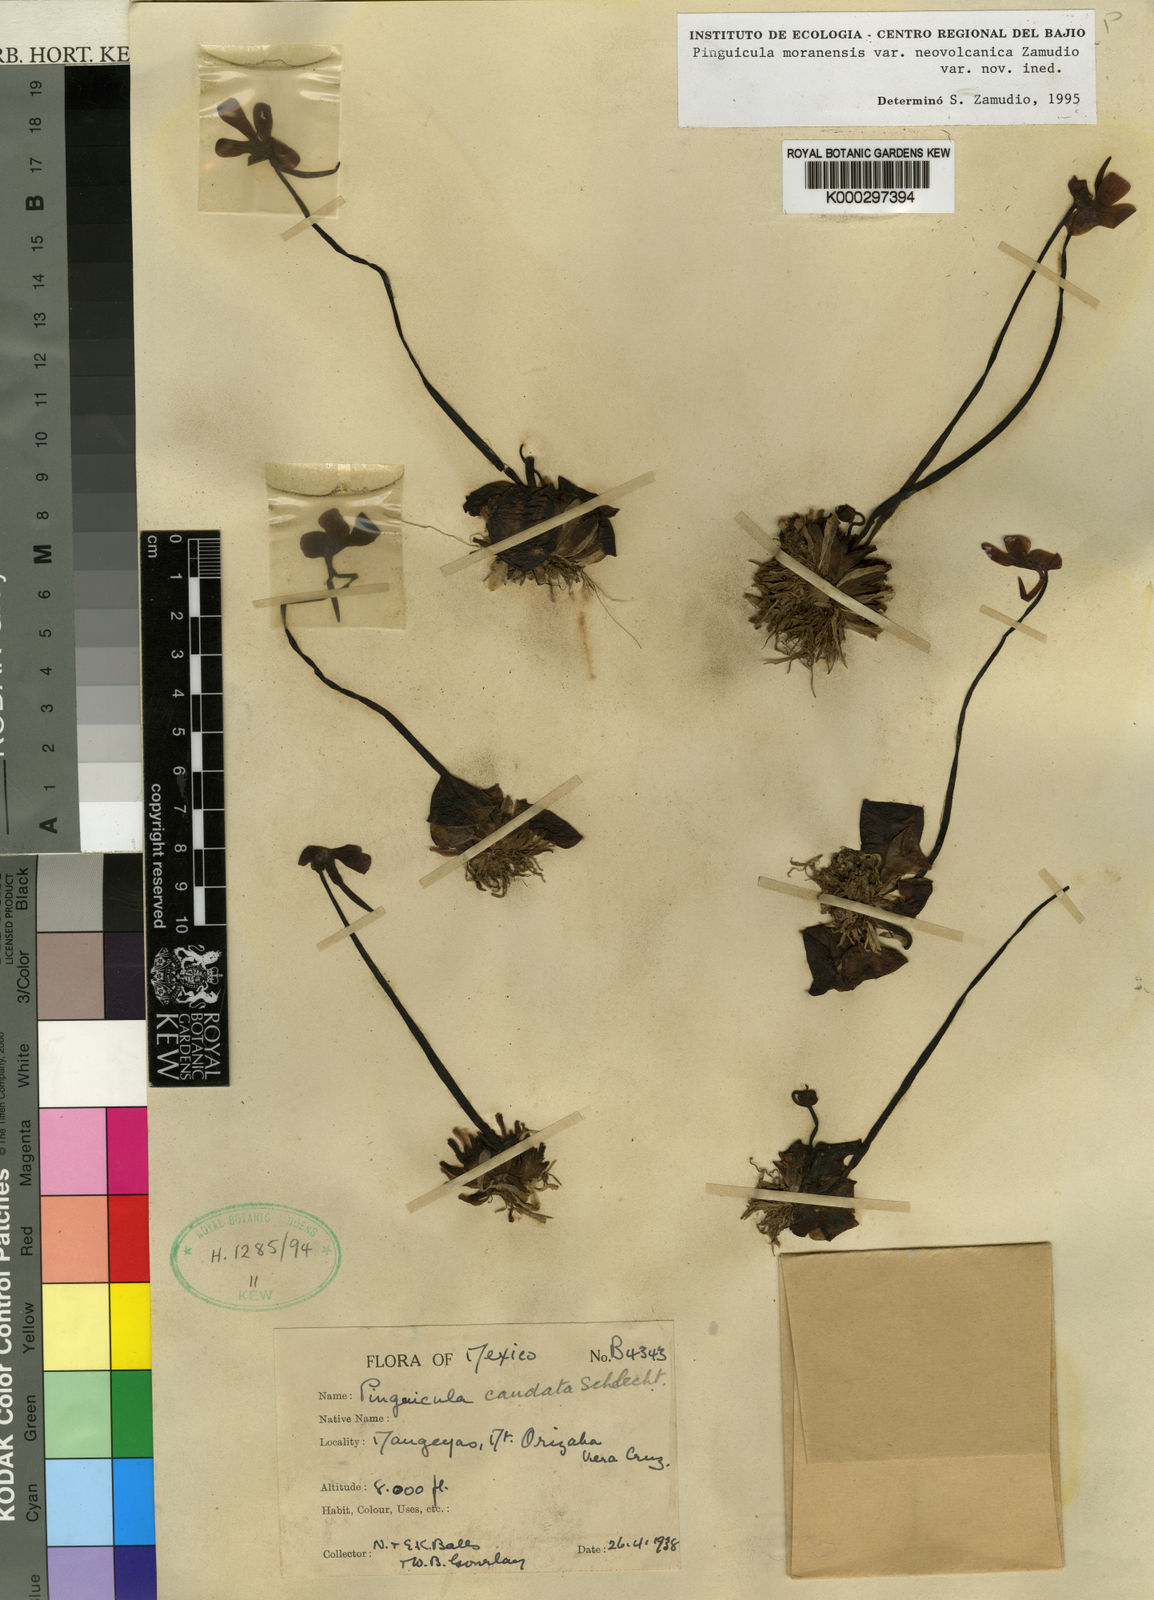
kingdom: Plantae
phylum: Tracheophyta
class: Magnoliopsida
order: Lamiales
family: Lentibulariaceae
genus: Pinguicula
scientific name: Pinguicula moranensis
